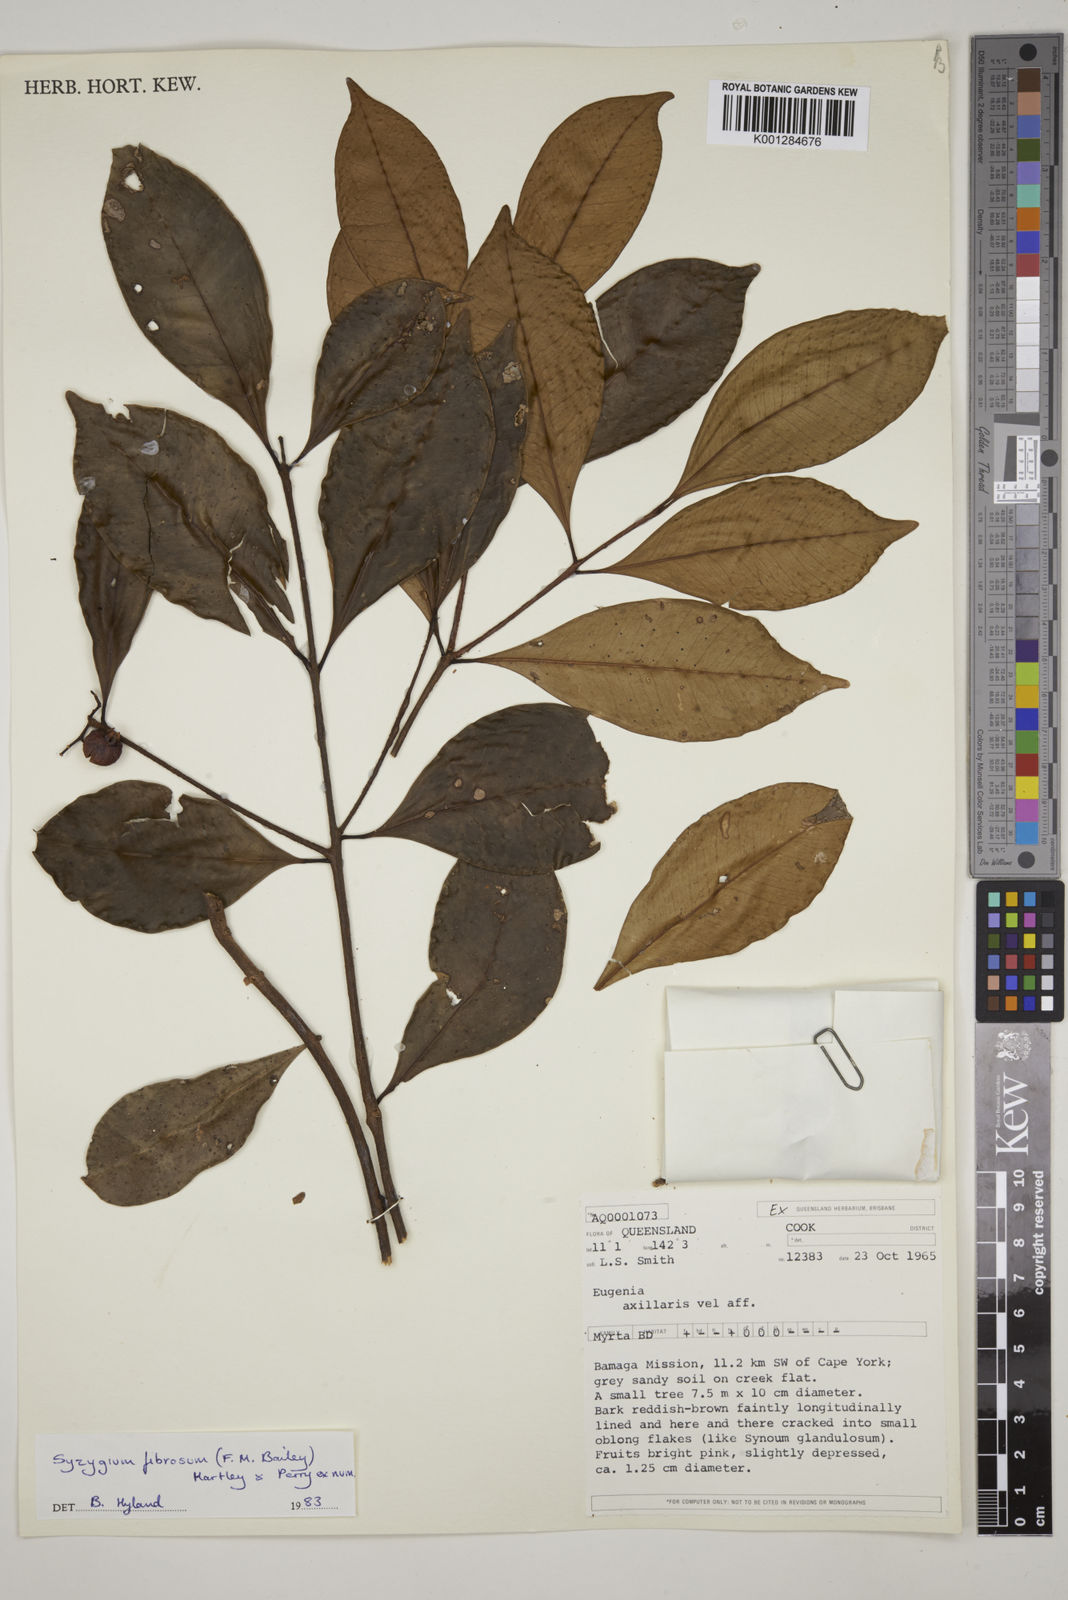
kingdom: Plantae
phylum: Tracheophyta
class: Magnoliopsida
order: Myrtales
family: Myrtaceae
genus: Syzygium
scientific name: Syzygium fibrosum
